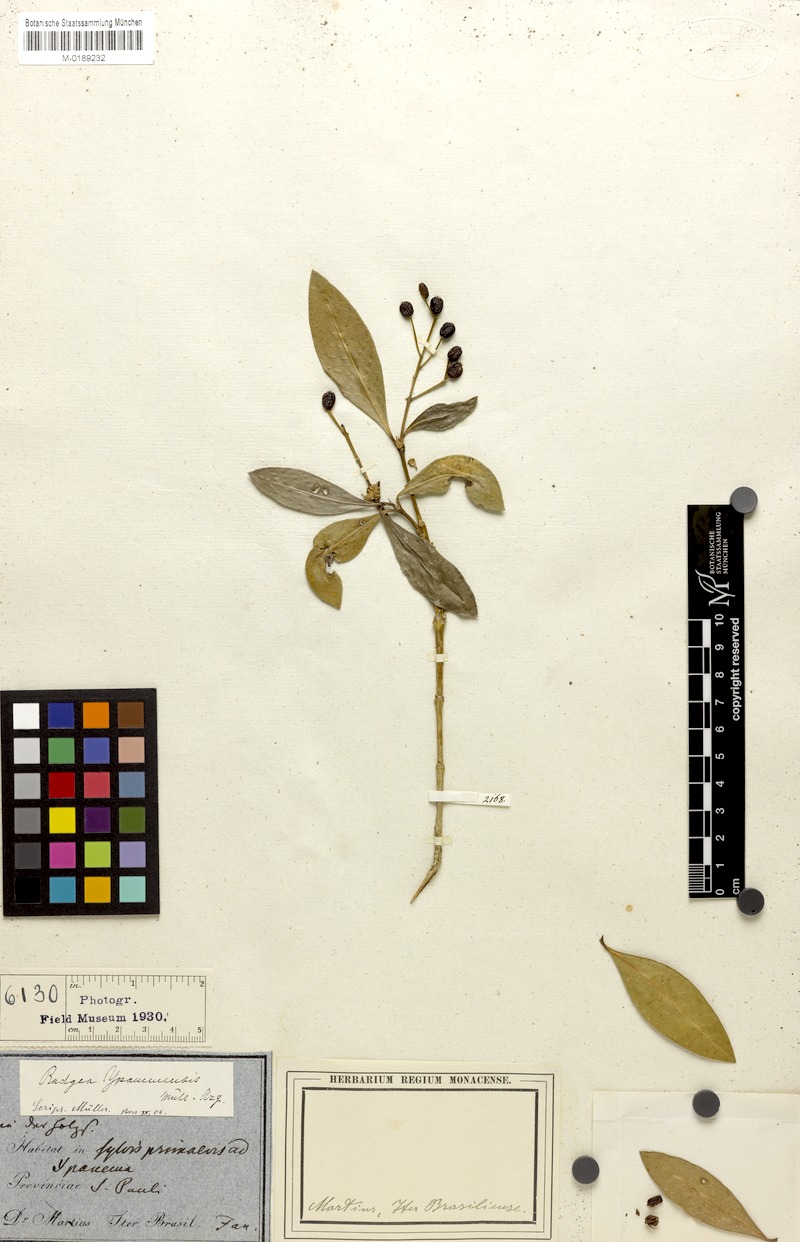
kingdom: Plantae
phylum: Tracheophyta
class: Magnoliopsida
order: Gentianales
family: Rubiaceae
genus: Rudgea
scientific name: Rudgea corymbulosa
